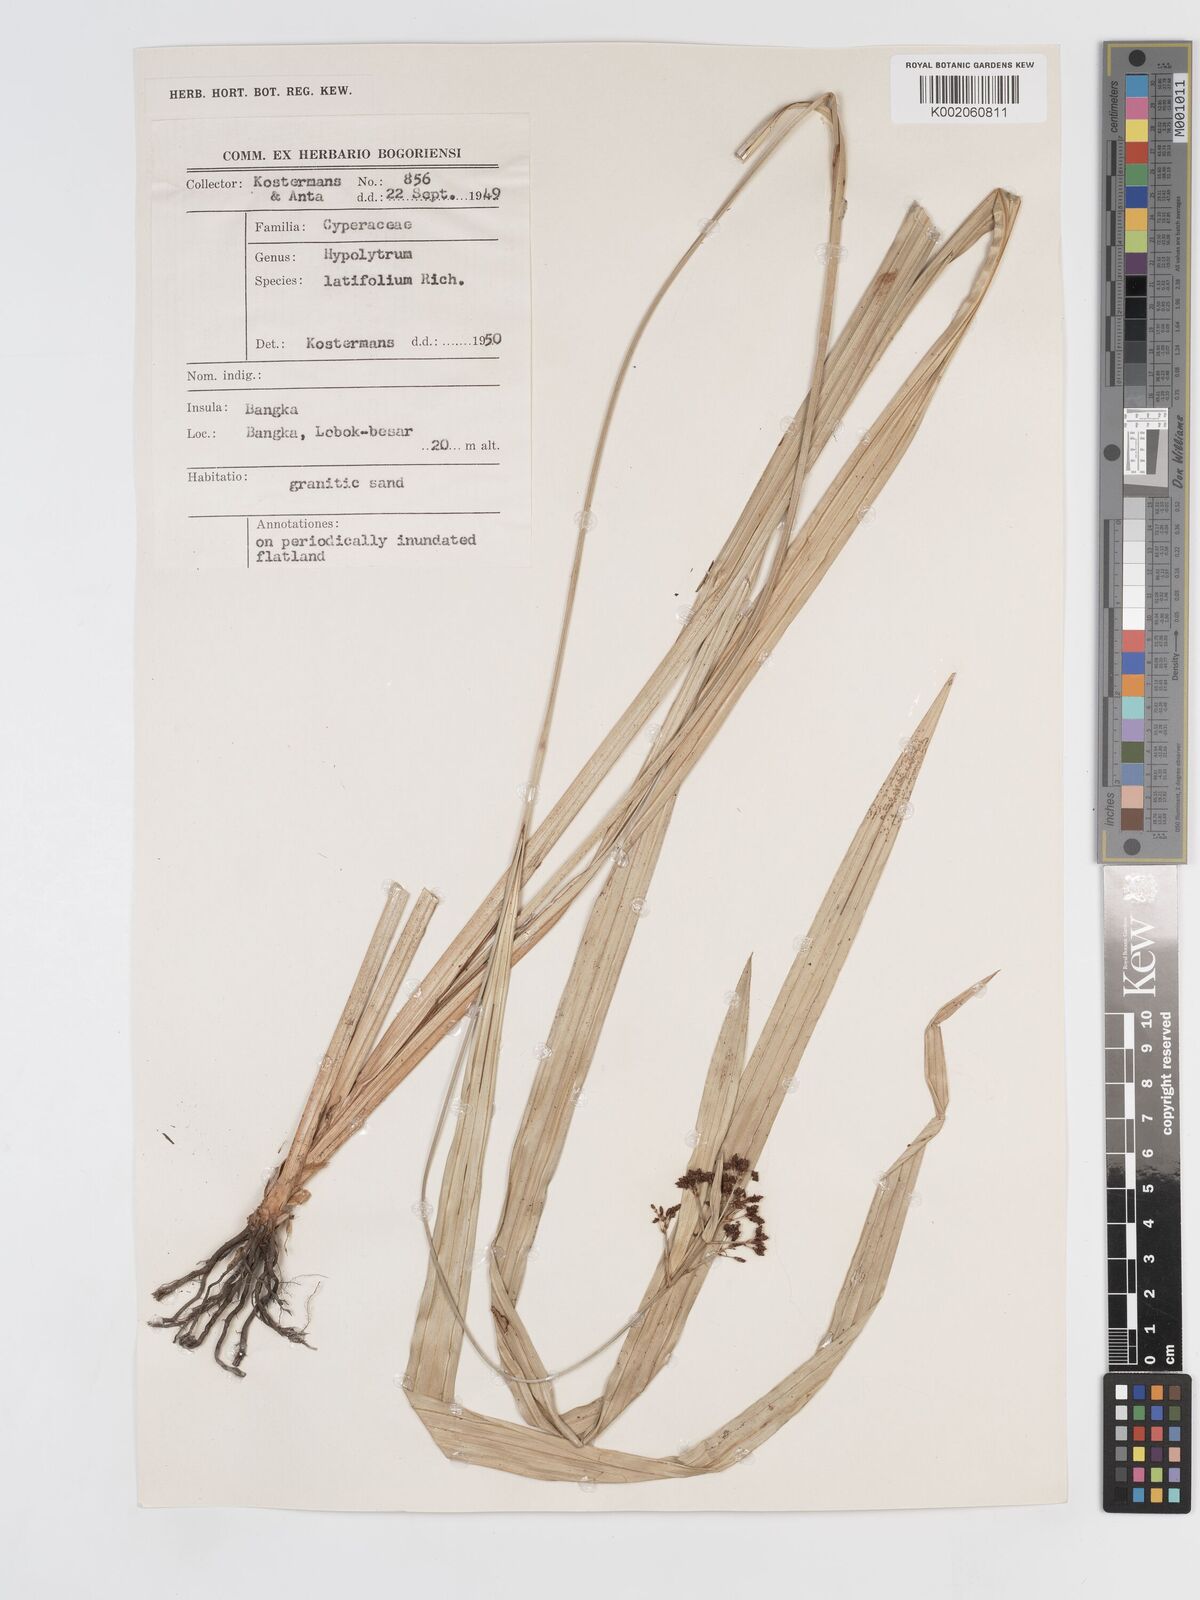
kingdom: Plantae
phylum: Tracheophyta
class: Liliopsida
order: Poales
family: Cyperaceae
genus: Hypolytrum
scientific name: Hypolytrum nemorum
